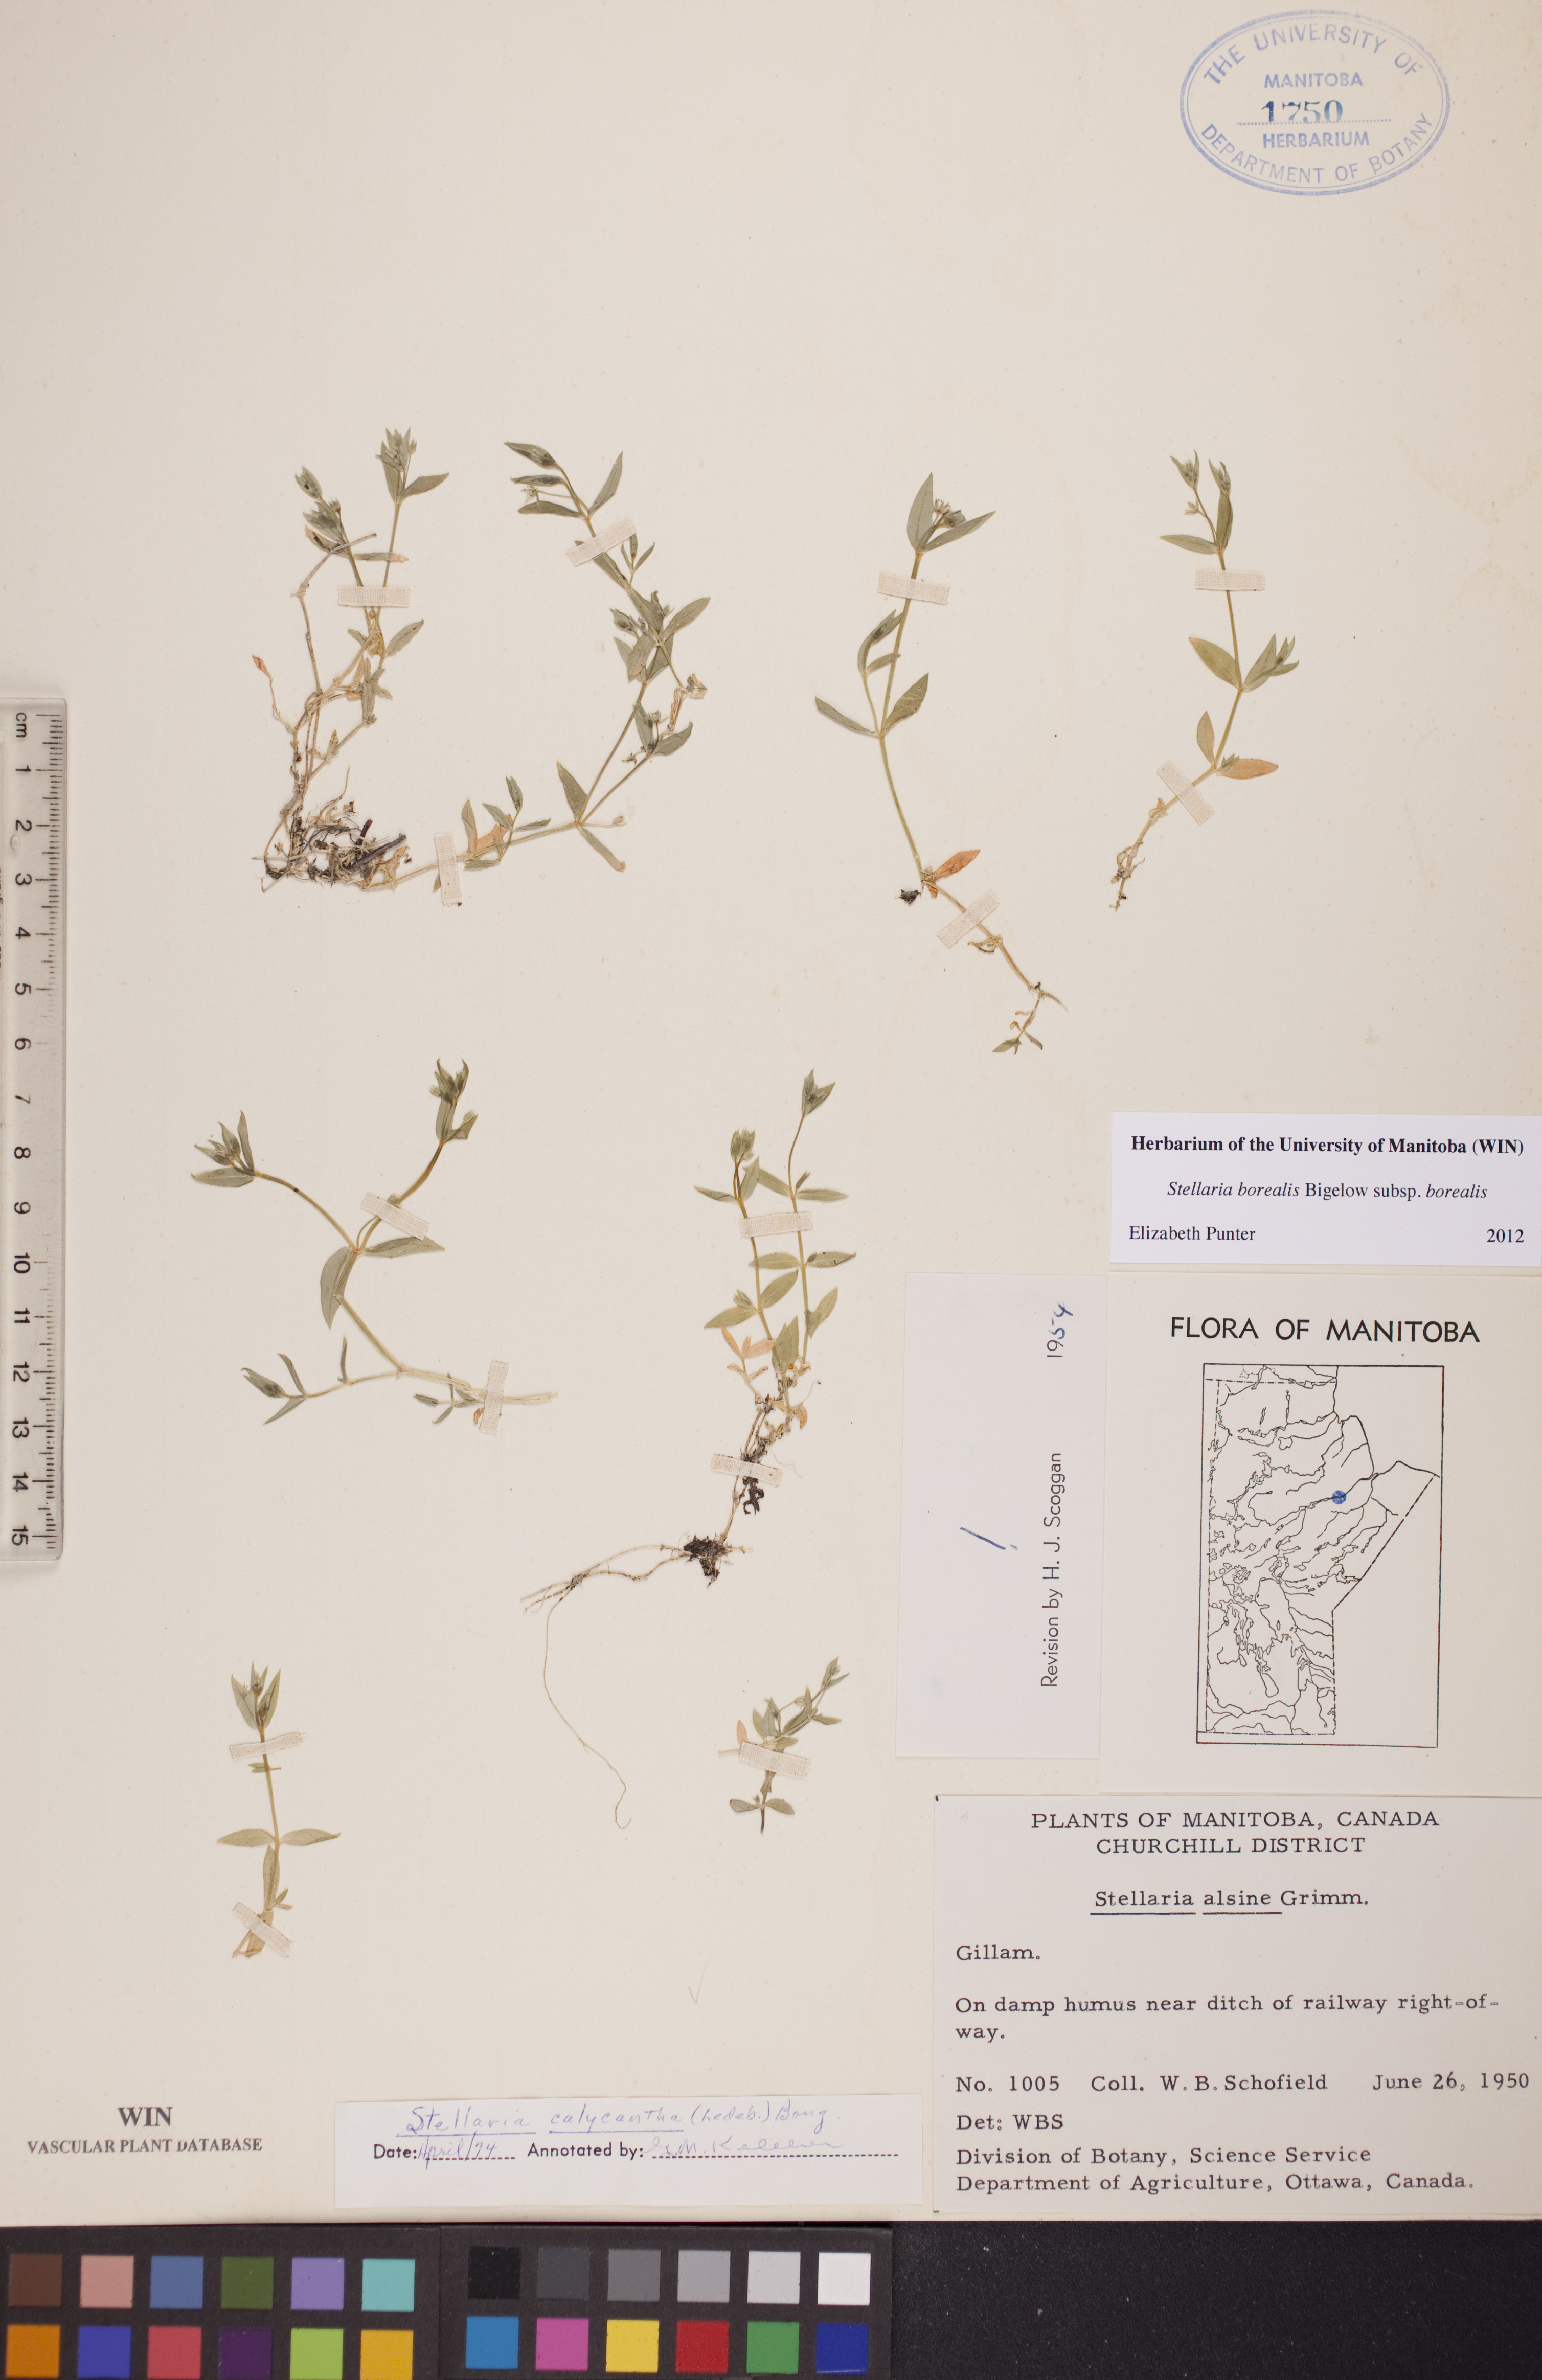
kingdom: Plantae
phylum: Tracheophyta
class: Magnoliopsida
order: Caryophyllales
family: Caryophyllaceae
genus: Stellaria
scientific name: Stellaria borealis
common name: Boreal starwort
